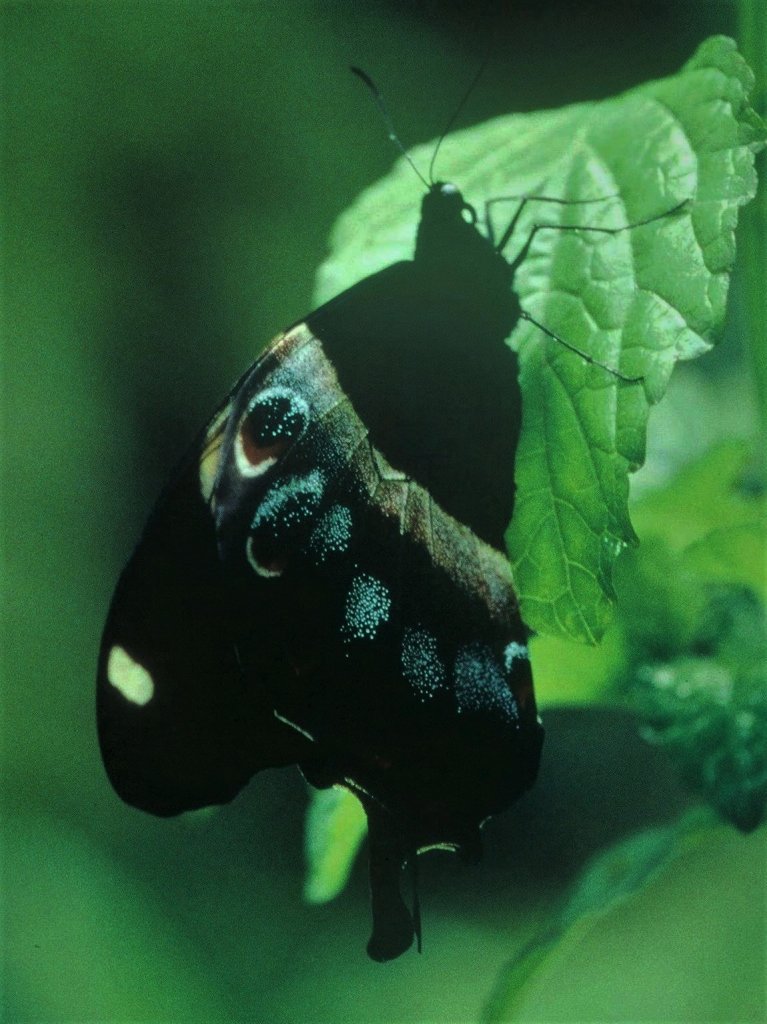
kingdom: Animalia
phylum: Arthropoda
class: Insecta
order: Lepidoptera
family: Papilionidae
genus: Papilio
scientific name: Papilio homerus
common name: Homerus Swallowtail
